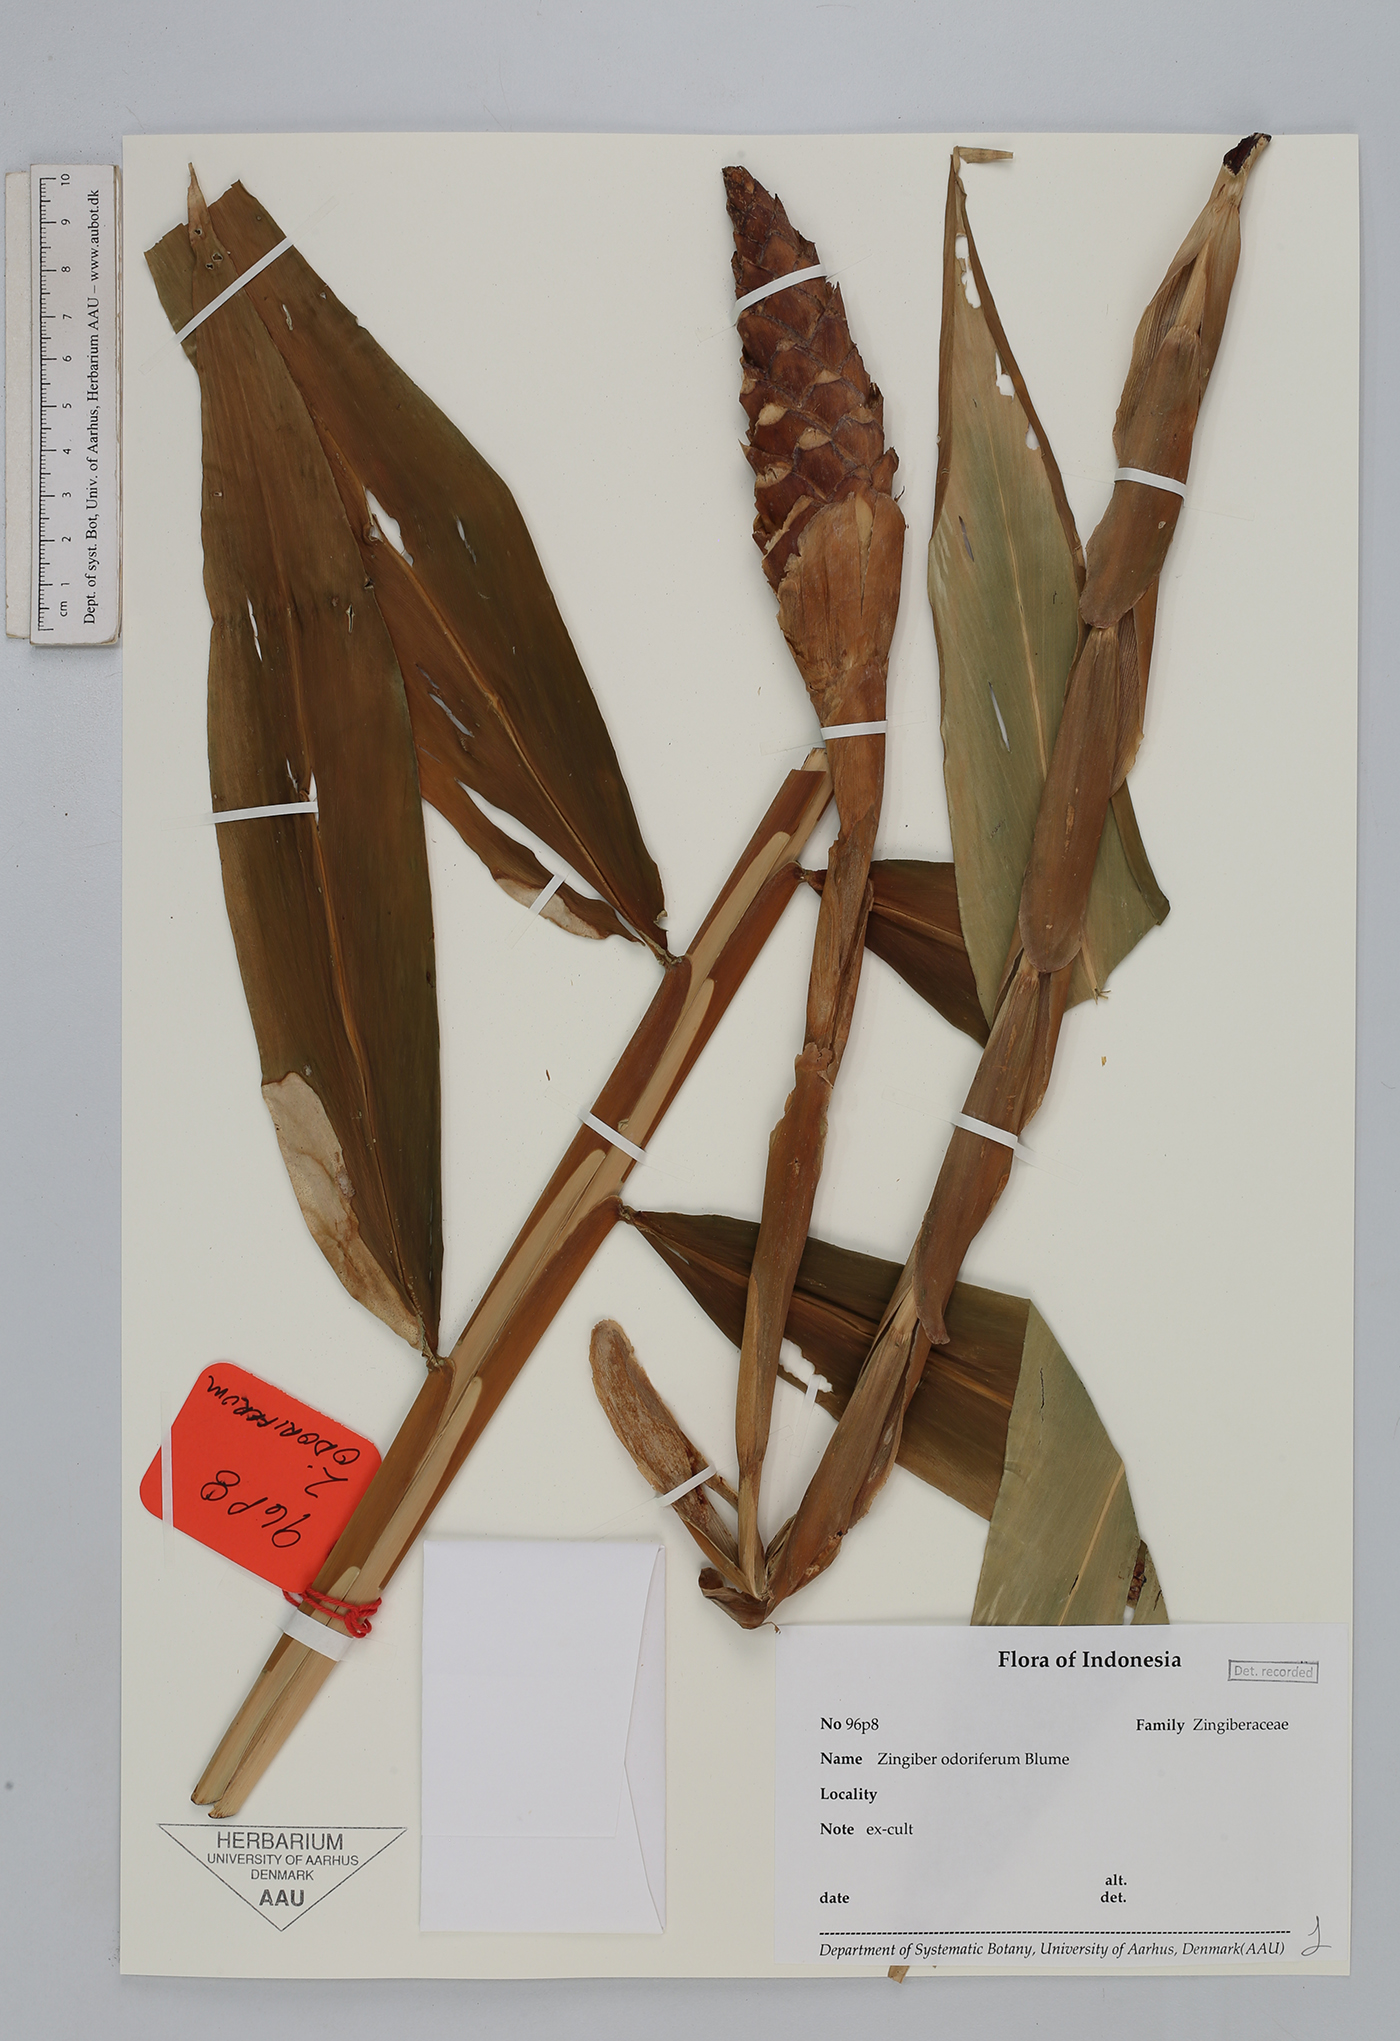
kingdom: Plantae
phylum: Tracheophyta
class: Liliopsida
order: Zingiberales
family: Zingiberaceae
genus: Zingiber
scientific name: Zingiber odoriferum
